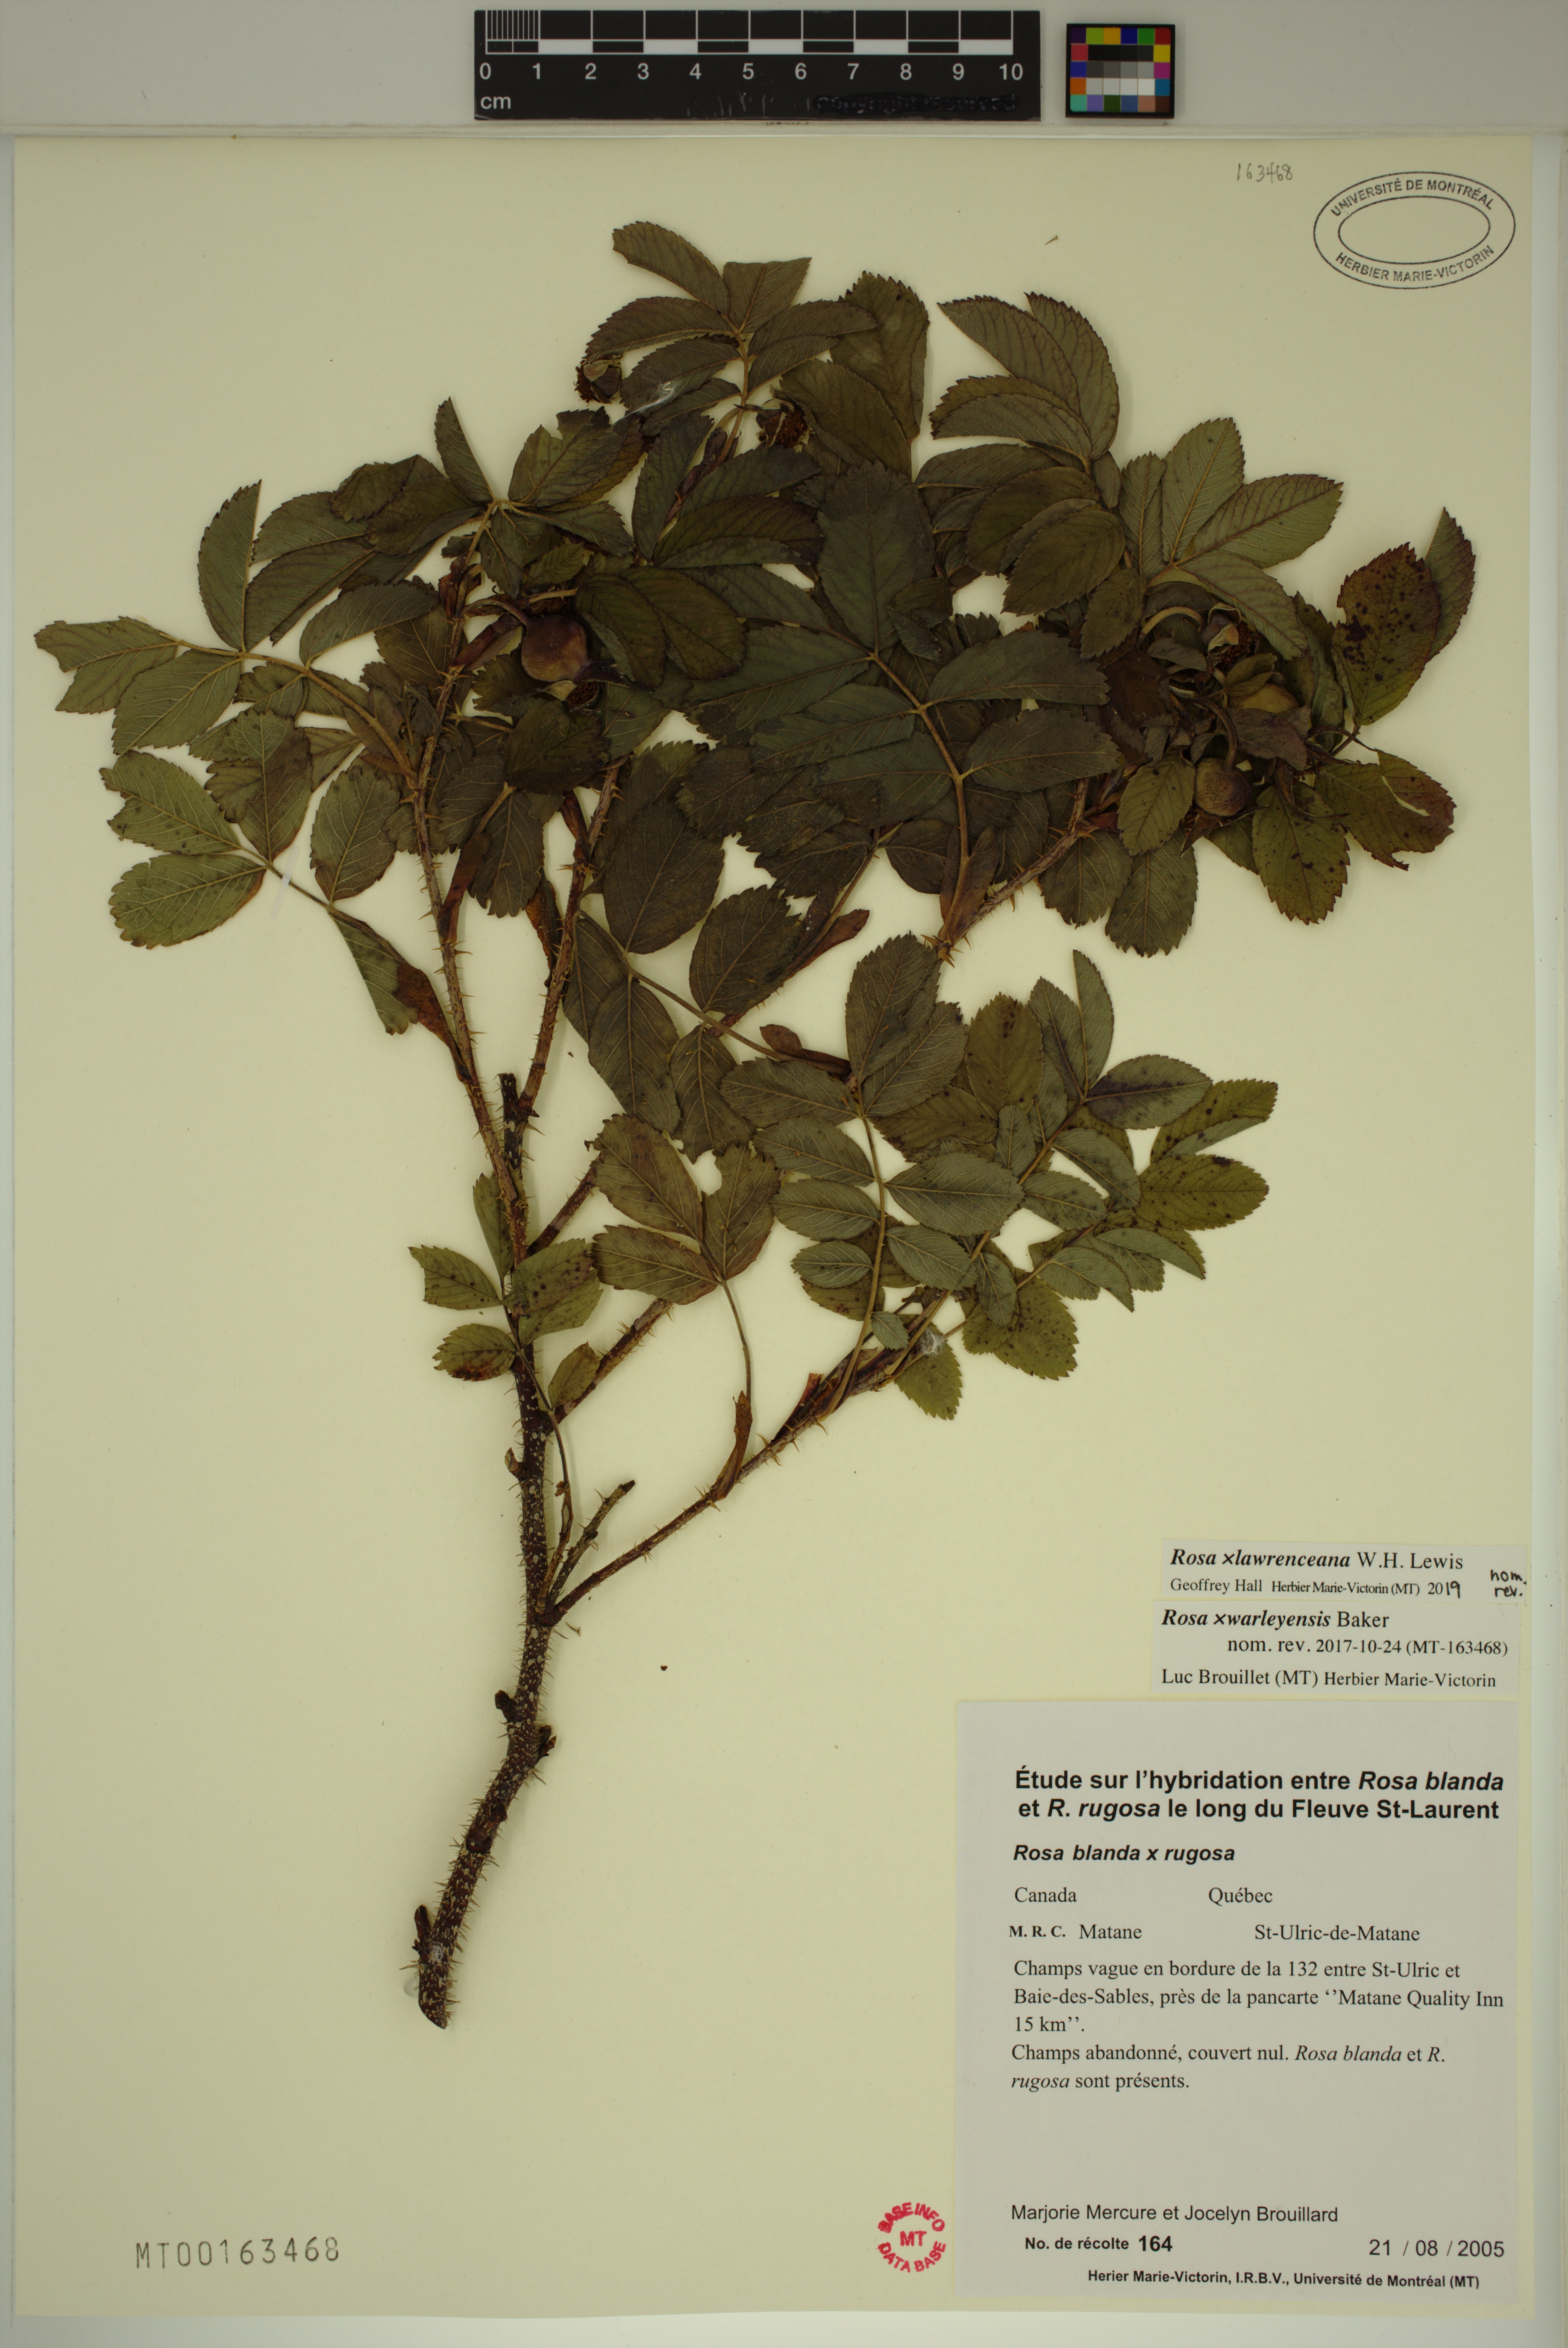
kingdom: Plantae
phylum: Tracheophyta
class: Magnoliopsida
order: Rosales
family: Rosaceae
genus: Rosa
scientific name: Rosa chinensis
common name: China rose
